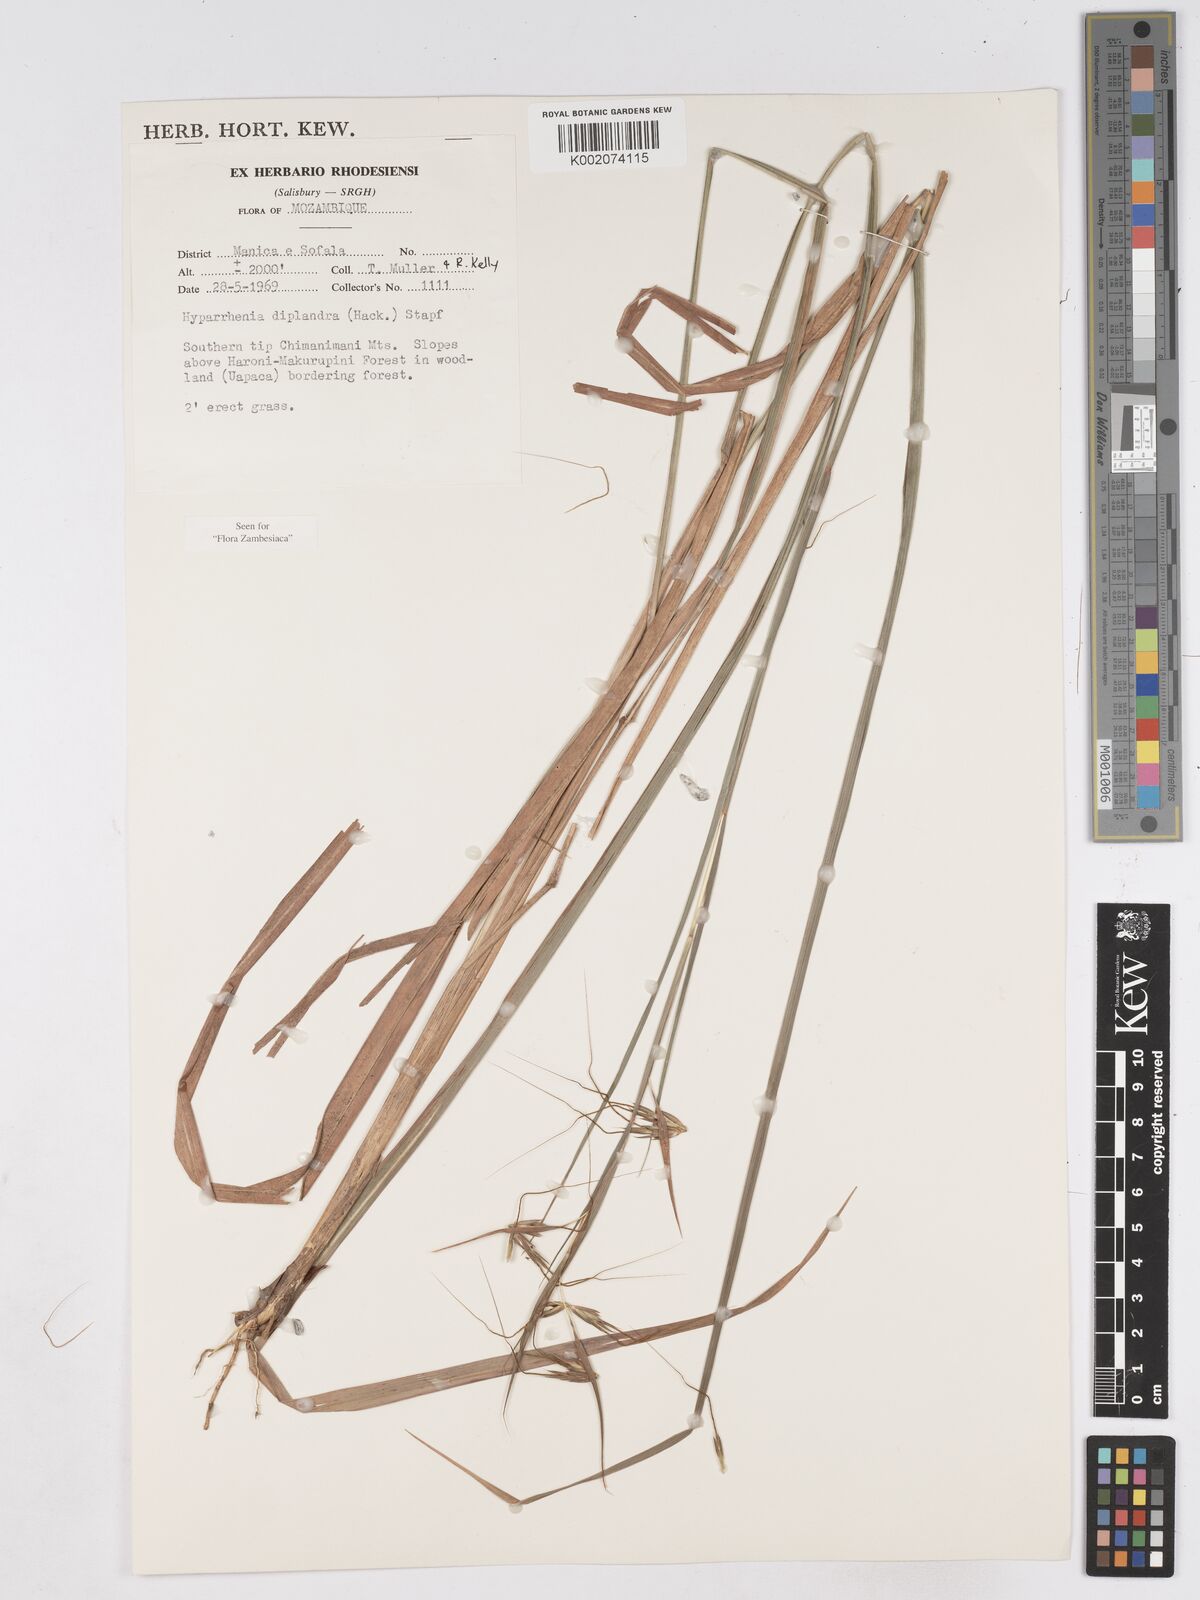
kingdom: Plantae
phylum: Tracheophyta
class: Liliopsida
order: Poales
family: Poaceae
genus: Hyparrhenia
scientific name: Hyparrhenia diplandra
